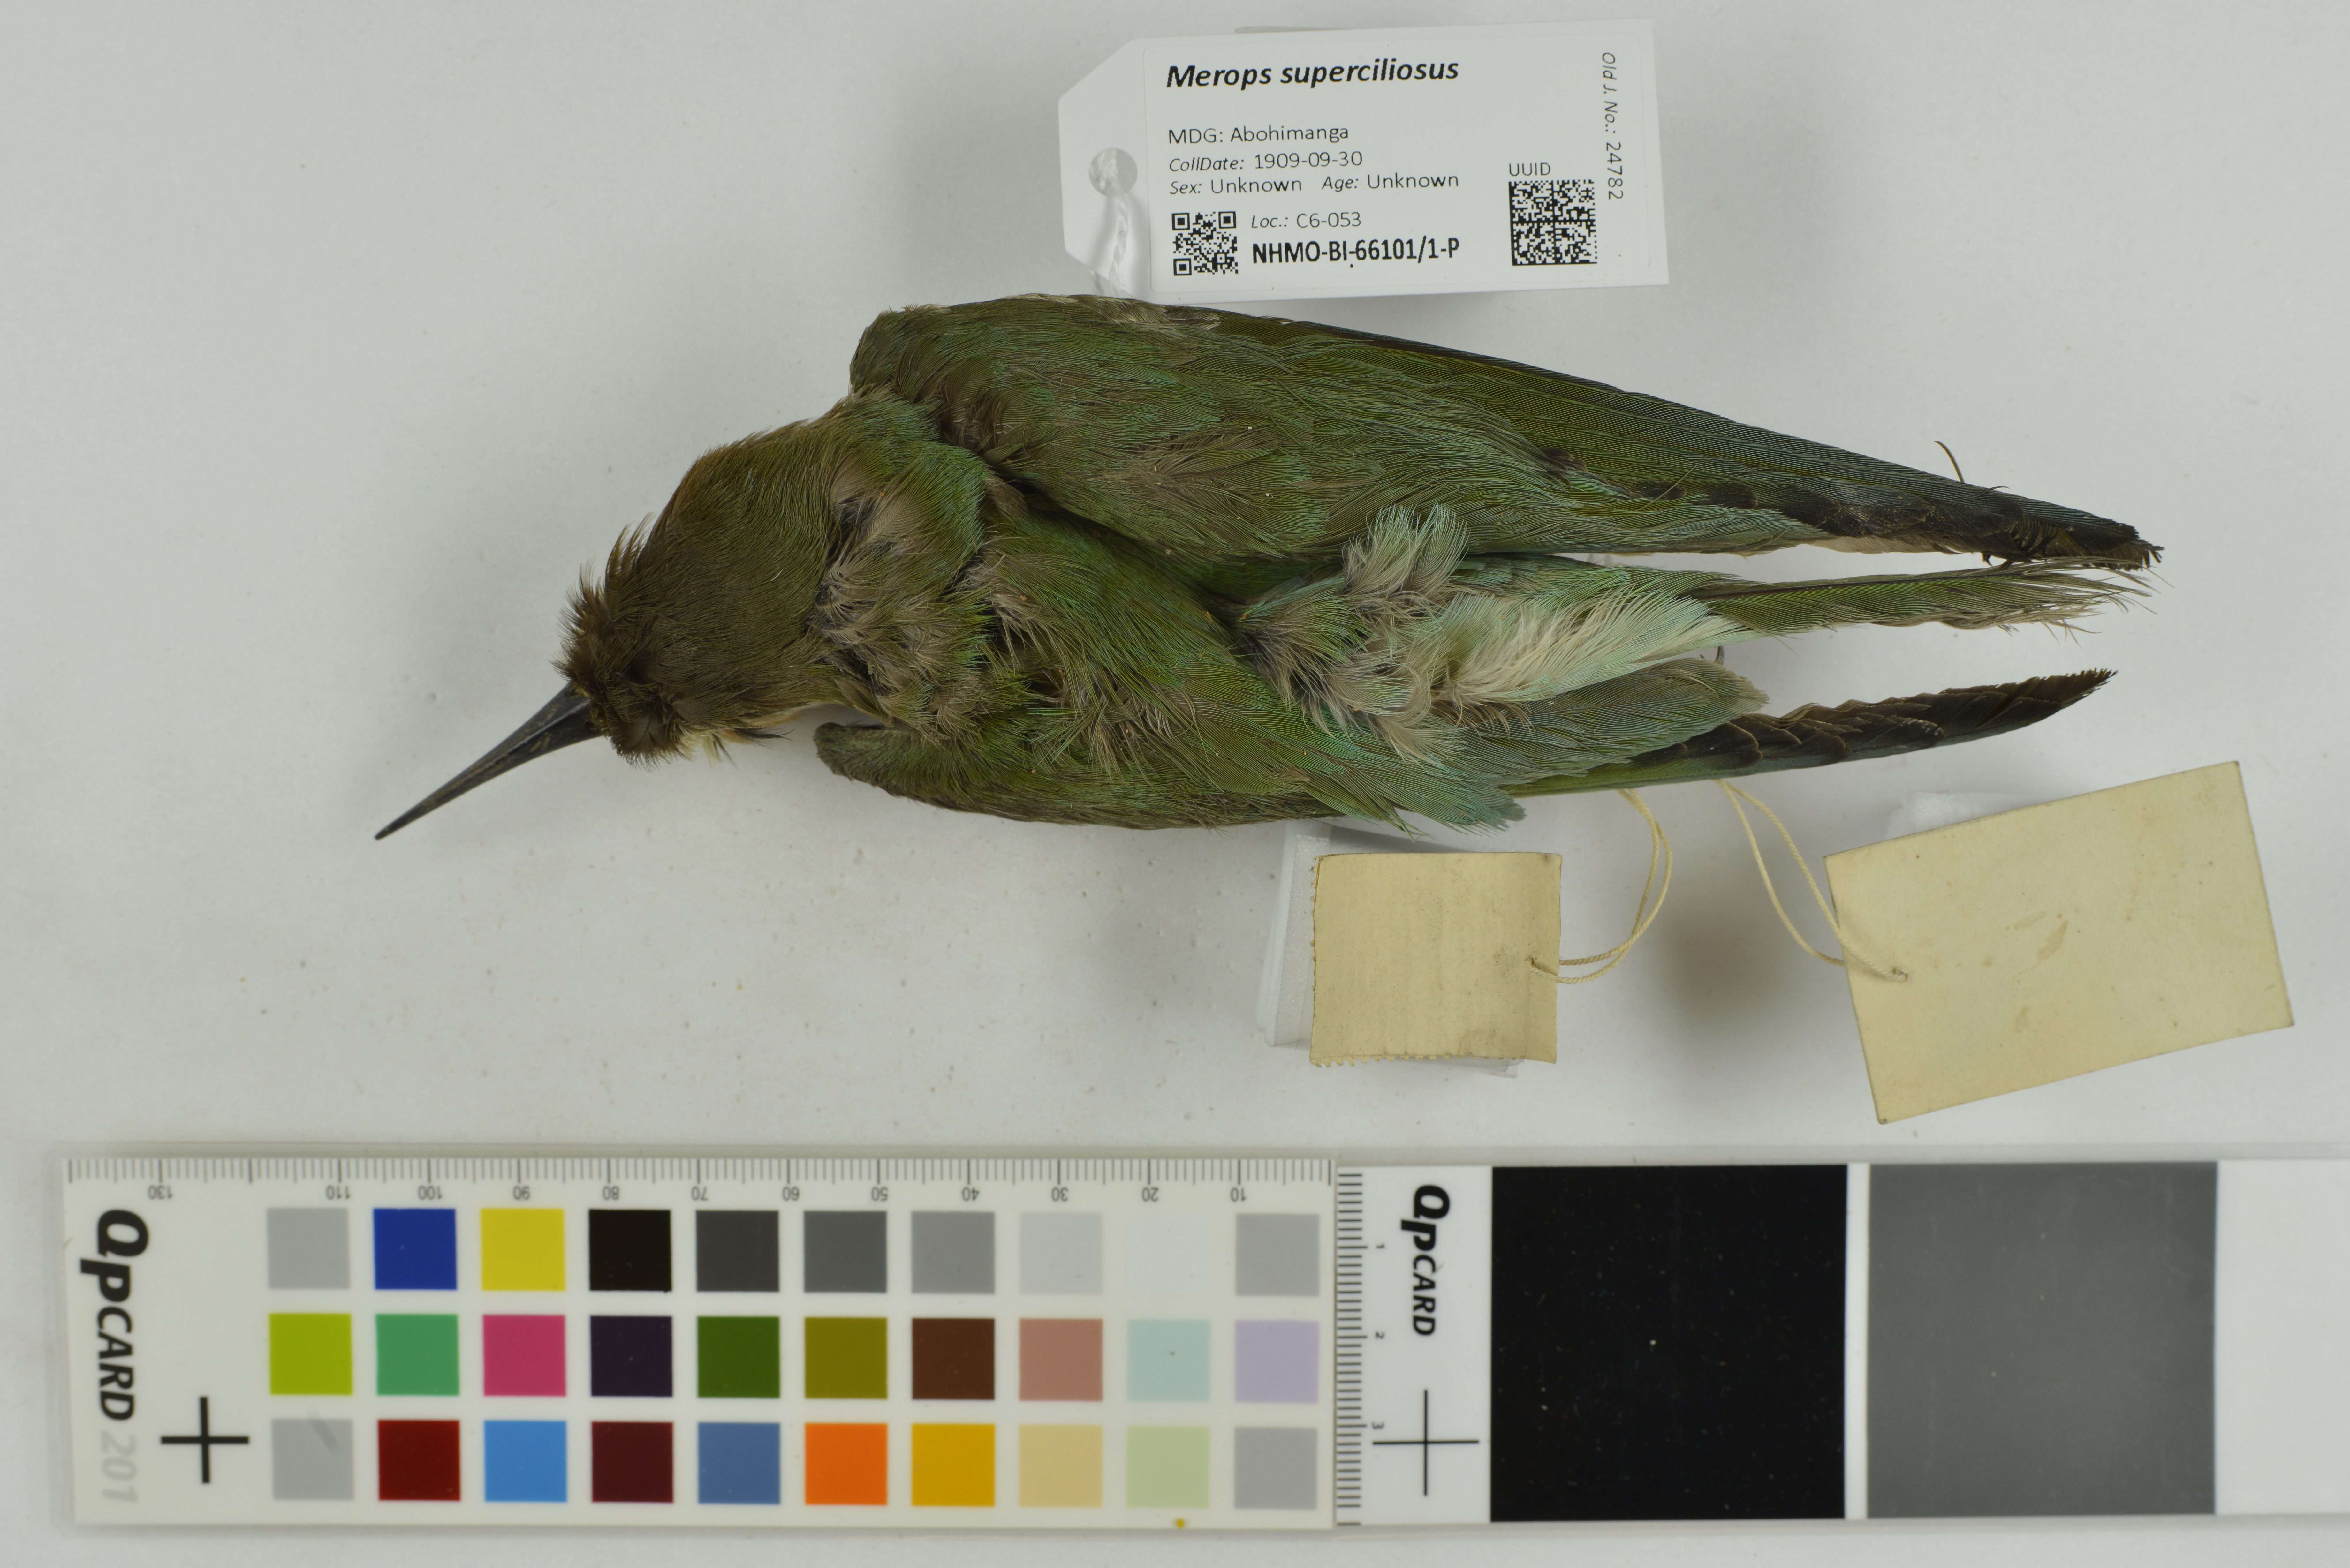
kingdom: Animalia
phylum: Chordata
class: Aves
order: Coraciiformes
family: Meropidae
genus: Merops
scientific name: Merops superciliosus
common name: Olive bee-eater
